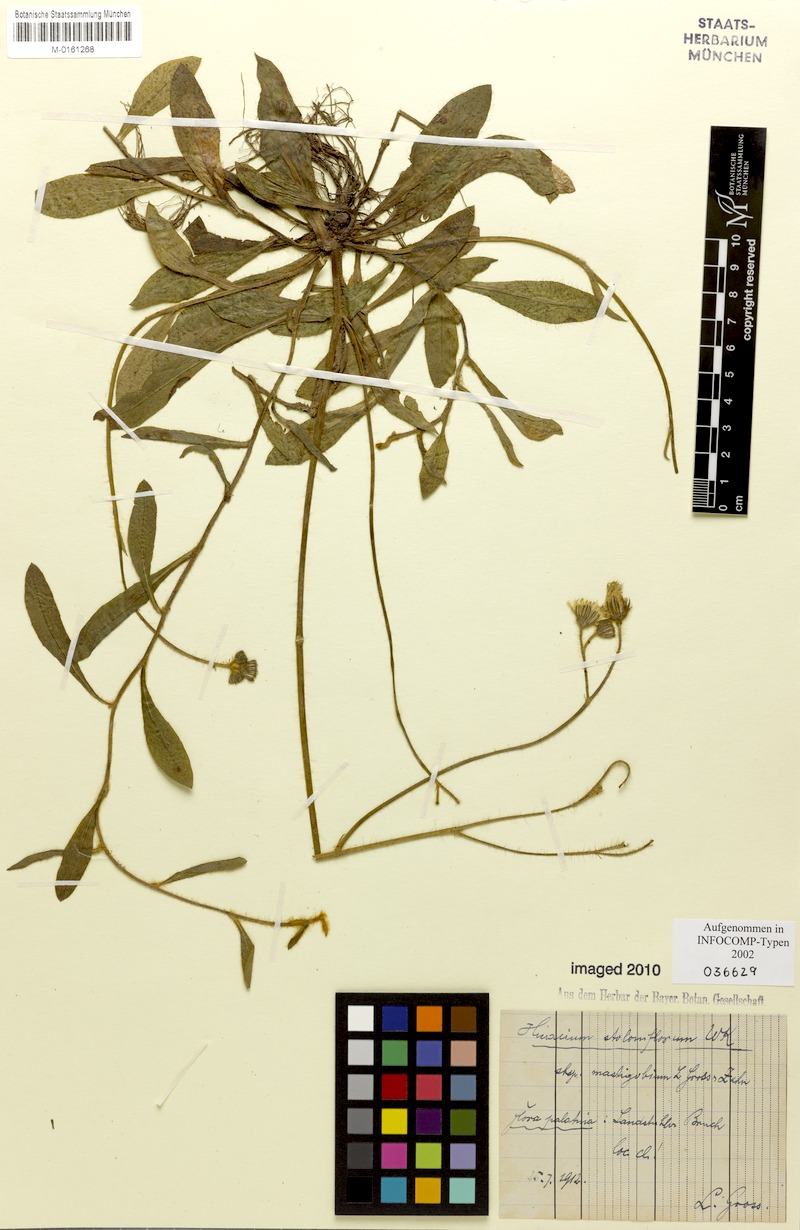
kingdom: Plantae
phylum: Tracheophyta
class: Magnoliopsida
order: Asterales
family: Asteraceae
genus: Pilosella
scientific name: Pilosella stoloniflora
